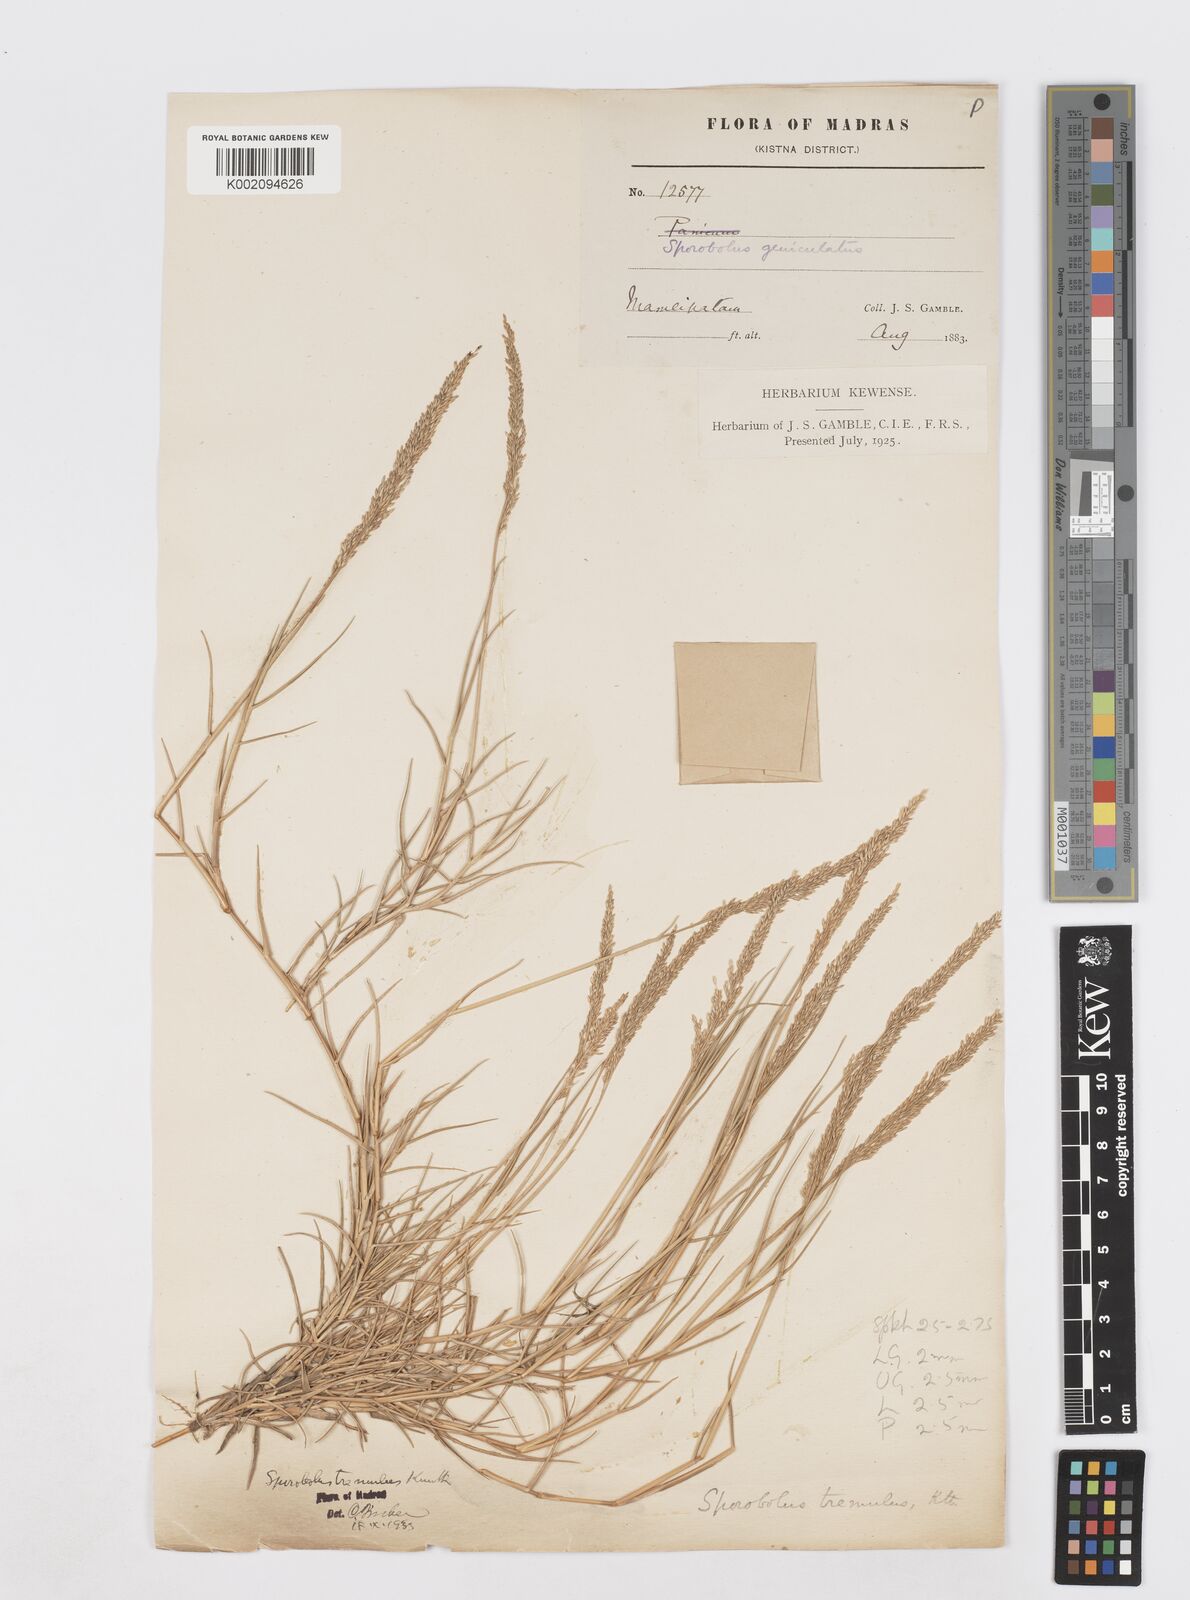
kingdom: Plantae
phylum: Tracheophyta
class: Liliopsida
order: Poales
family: Poaceae
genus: Sporobolus
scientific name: Sporobolus virginicus
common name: Beach dropseed
